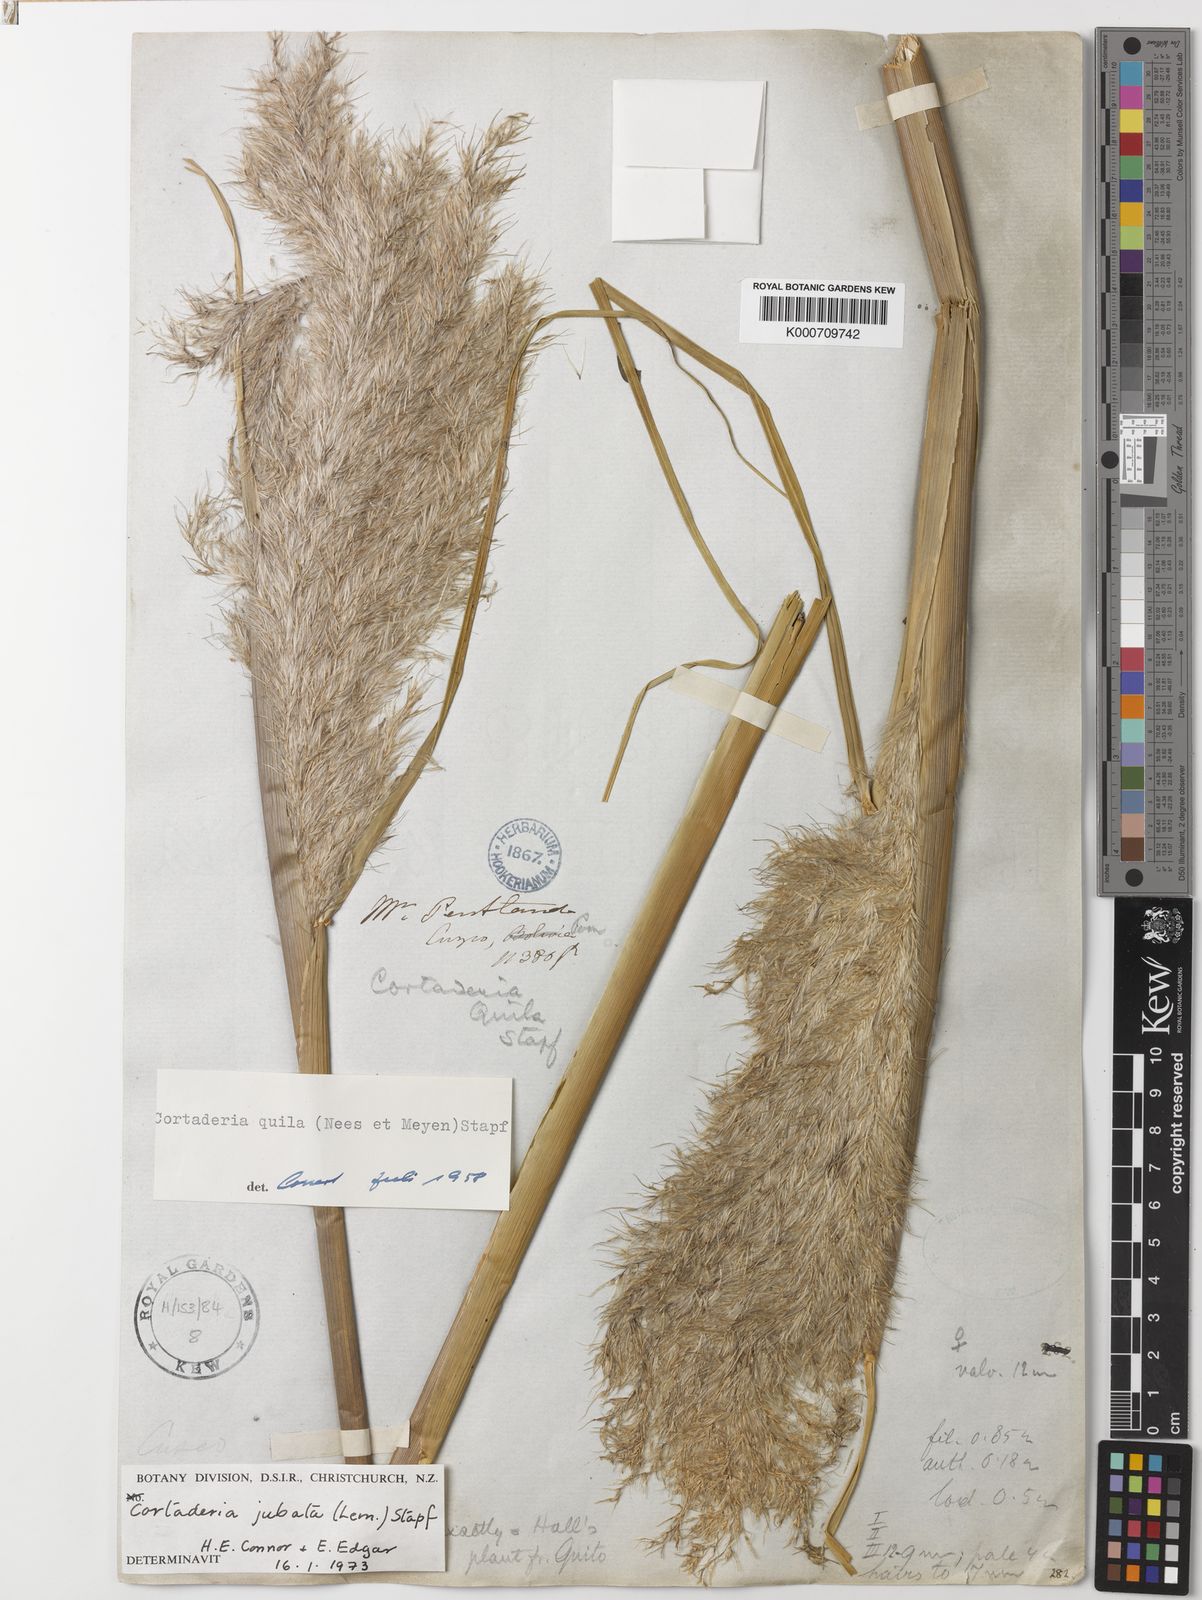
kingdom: Plantae
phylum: Tracheophyta
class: Liliopsida
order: Poales
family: Poaceae
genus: Cortaderia
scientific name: Cortaderia jubata
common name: Purple pampas grass
